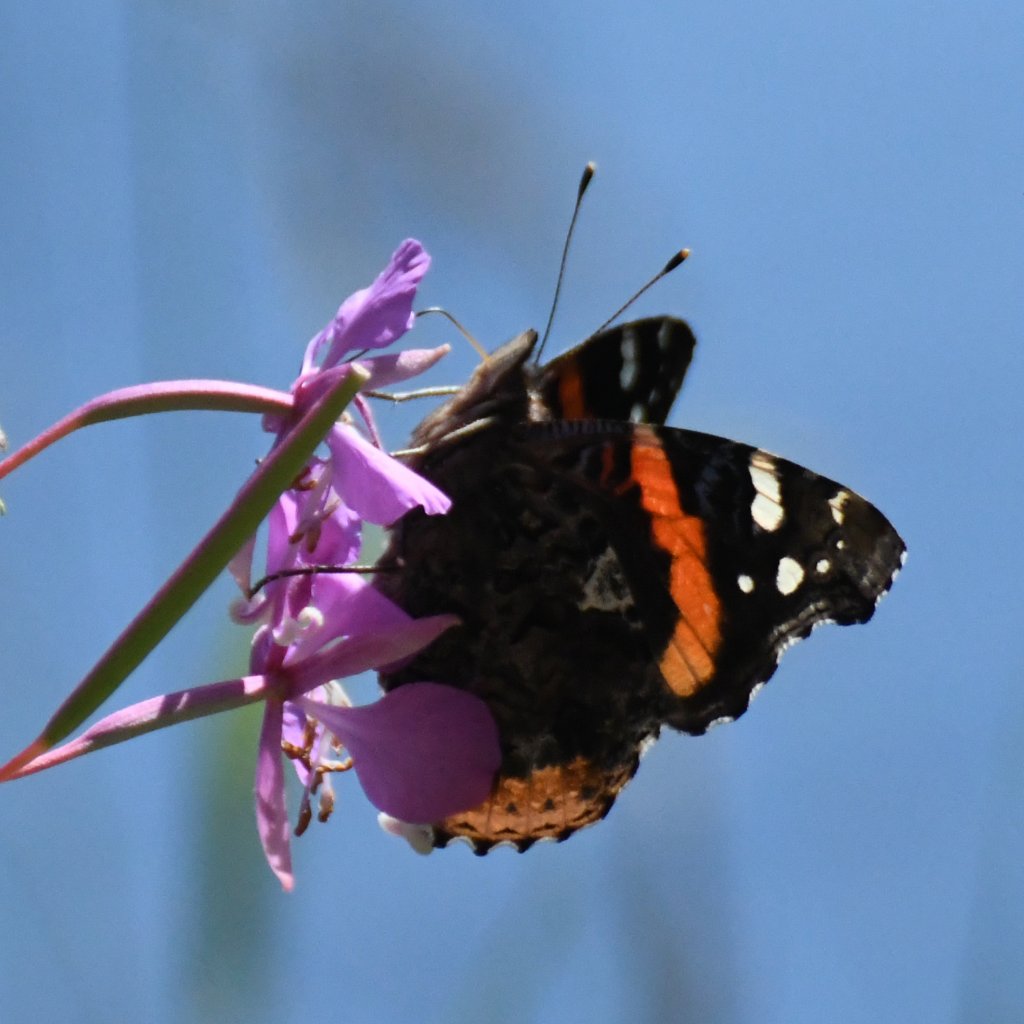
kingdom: Animalia
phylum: Arthropoda
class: Insecta
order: Lepidoptera
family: Nymphalidae
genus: Vanessa
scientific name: Vanessa atalanta
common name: Red Admiral
